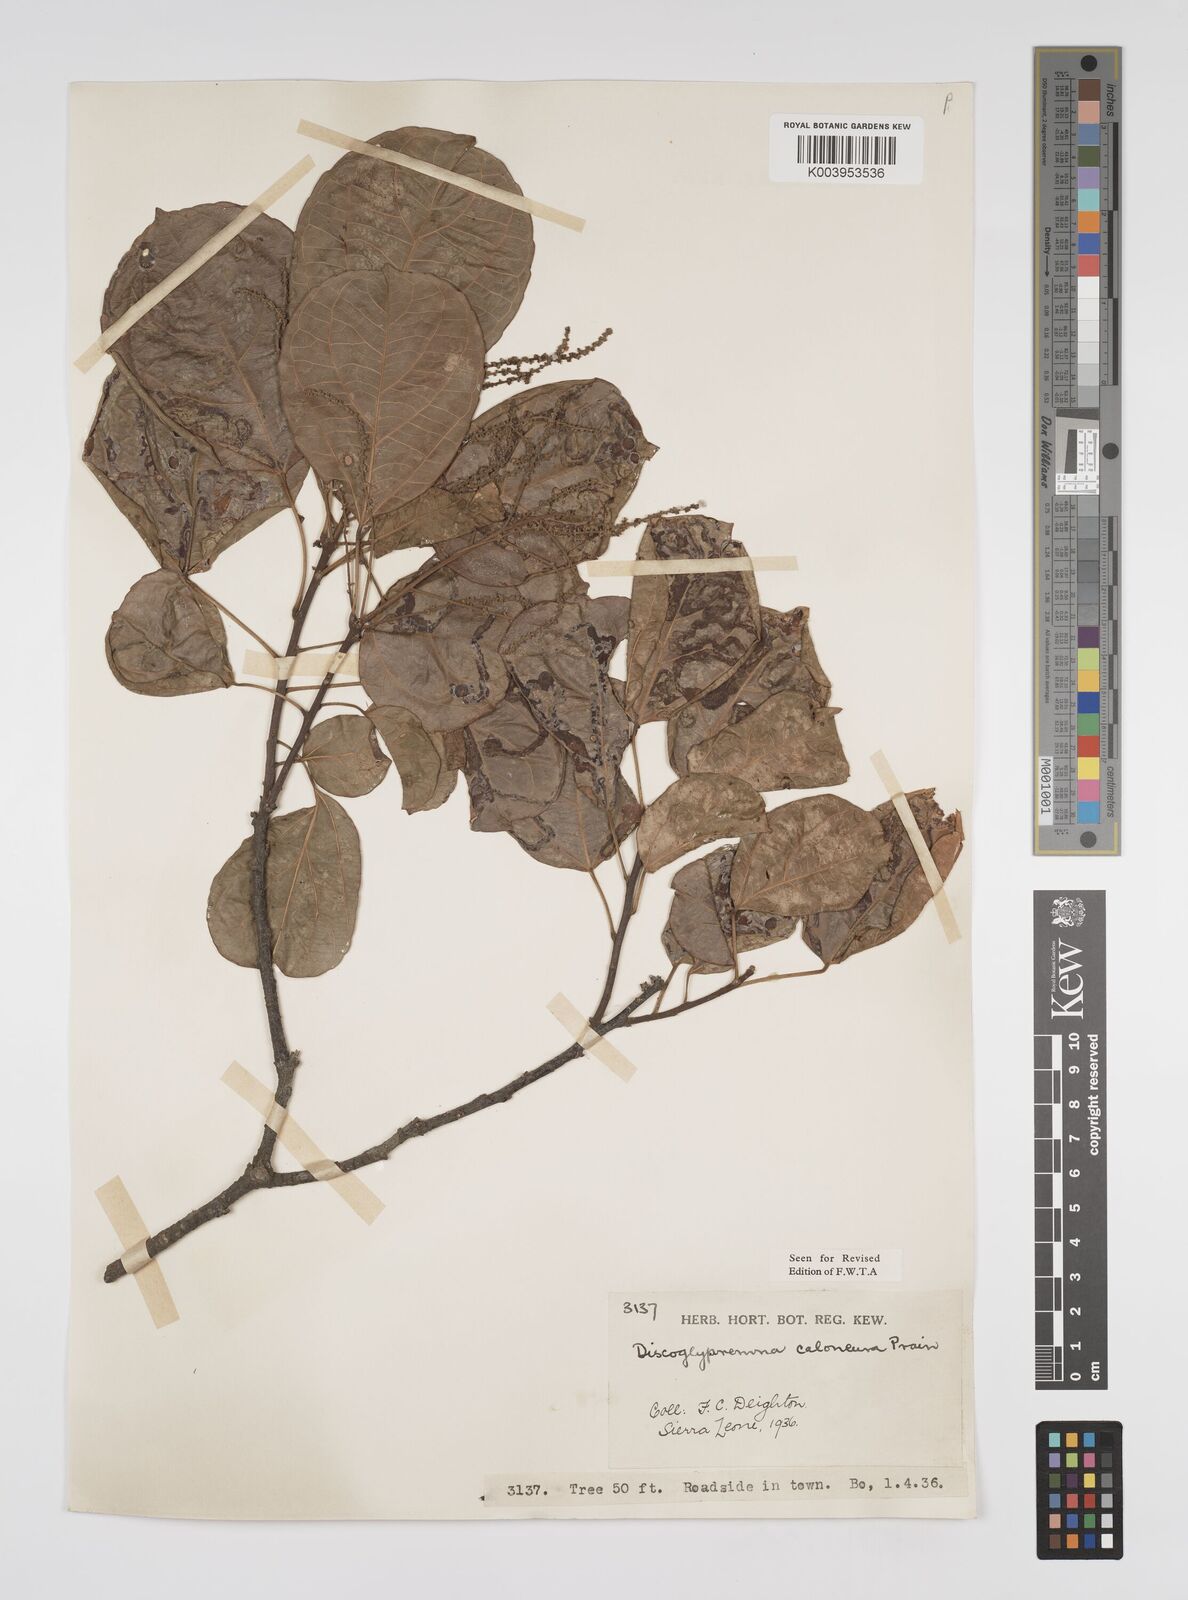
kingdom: Plantae
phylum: Tracheophyta
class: Magnoliopsida
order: Malpighiales
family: Euphorbiaceae
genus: Discoglypremna
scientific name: Discoglypremna caloneura
